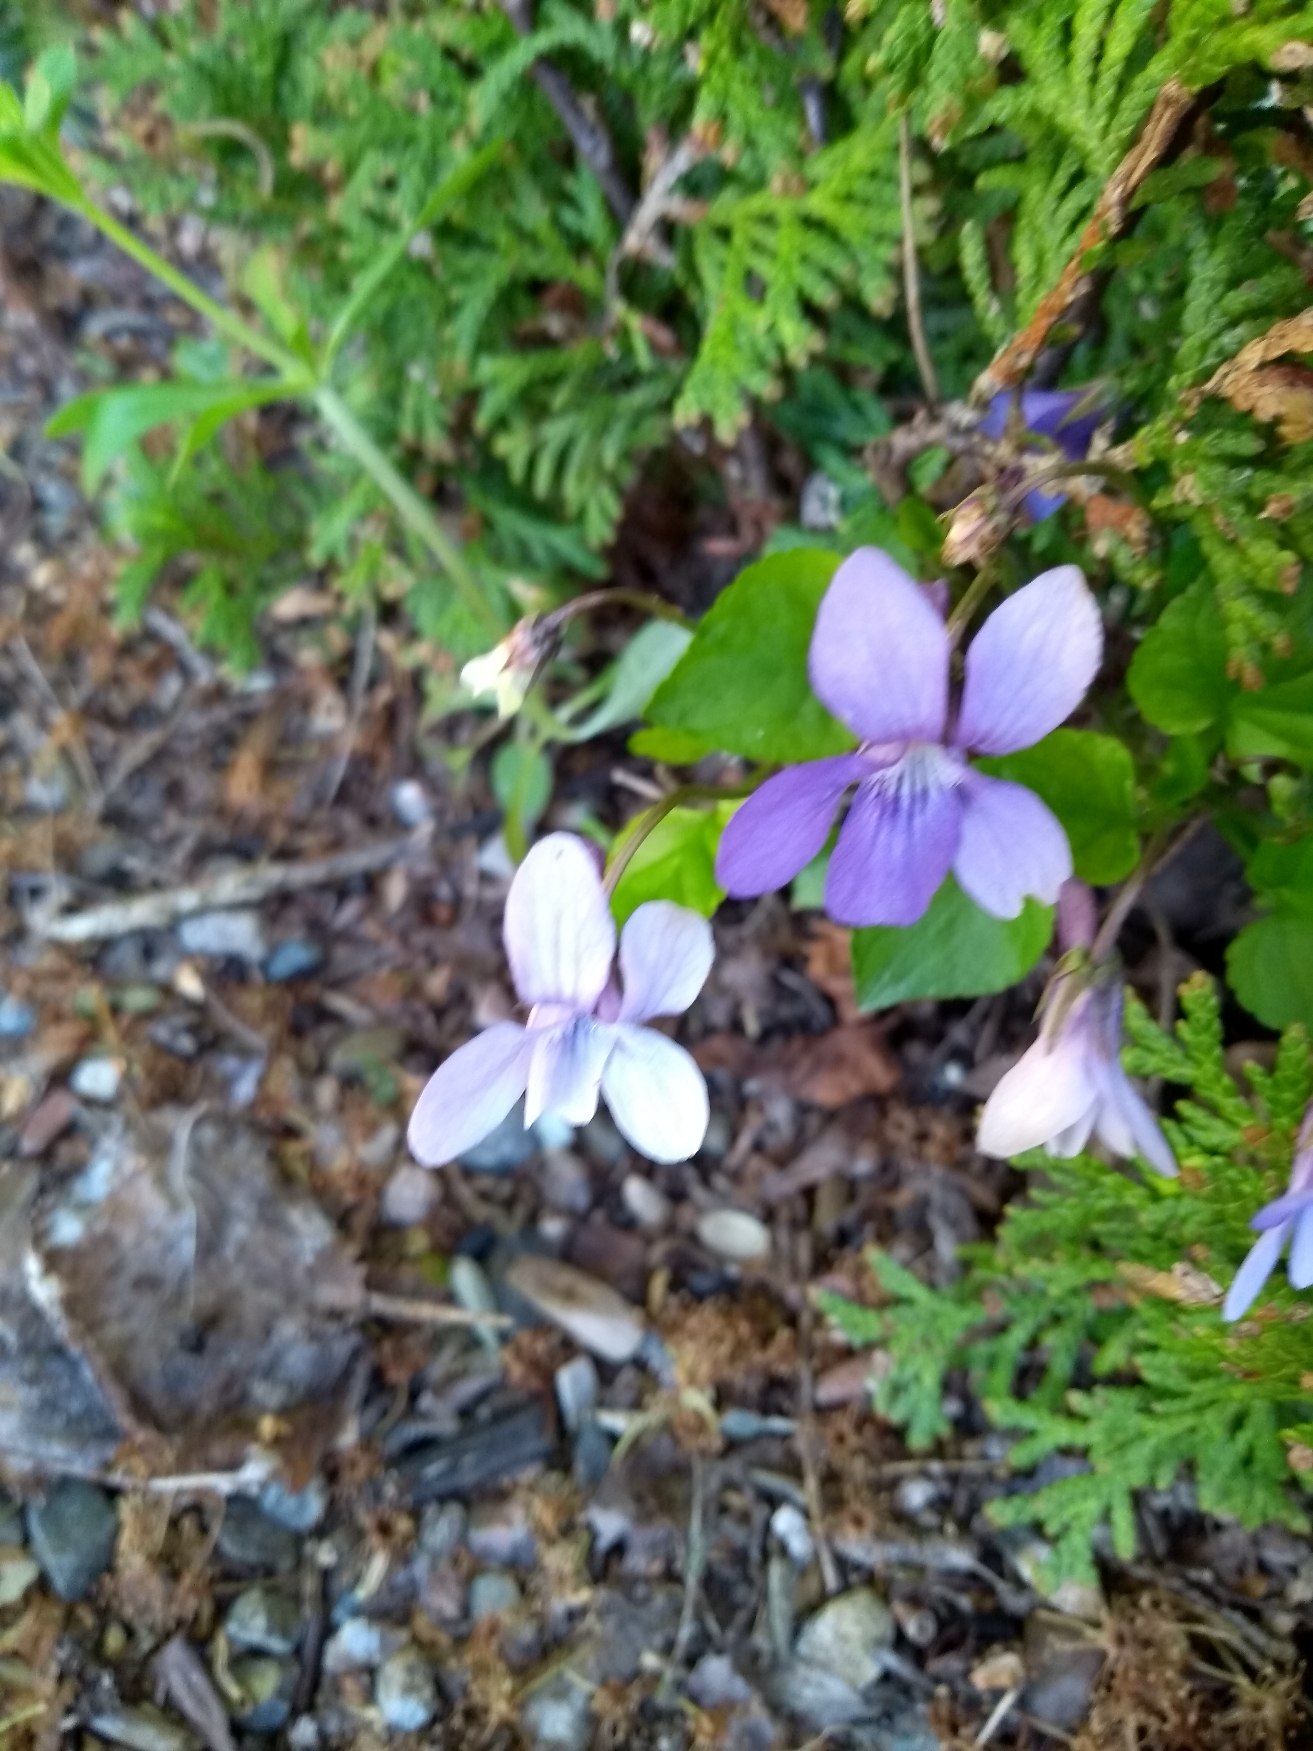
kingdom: Plantae
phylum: Tracheophyta
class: Magnoliopsida
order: Malpighiales
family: Violaceae
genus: Viola
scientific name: Viola reichenbachiana
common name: Skov-viol
